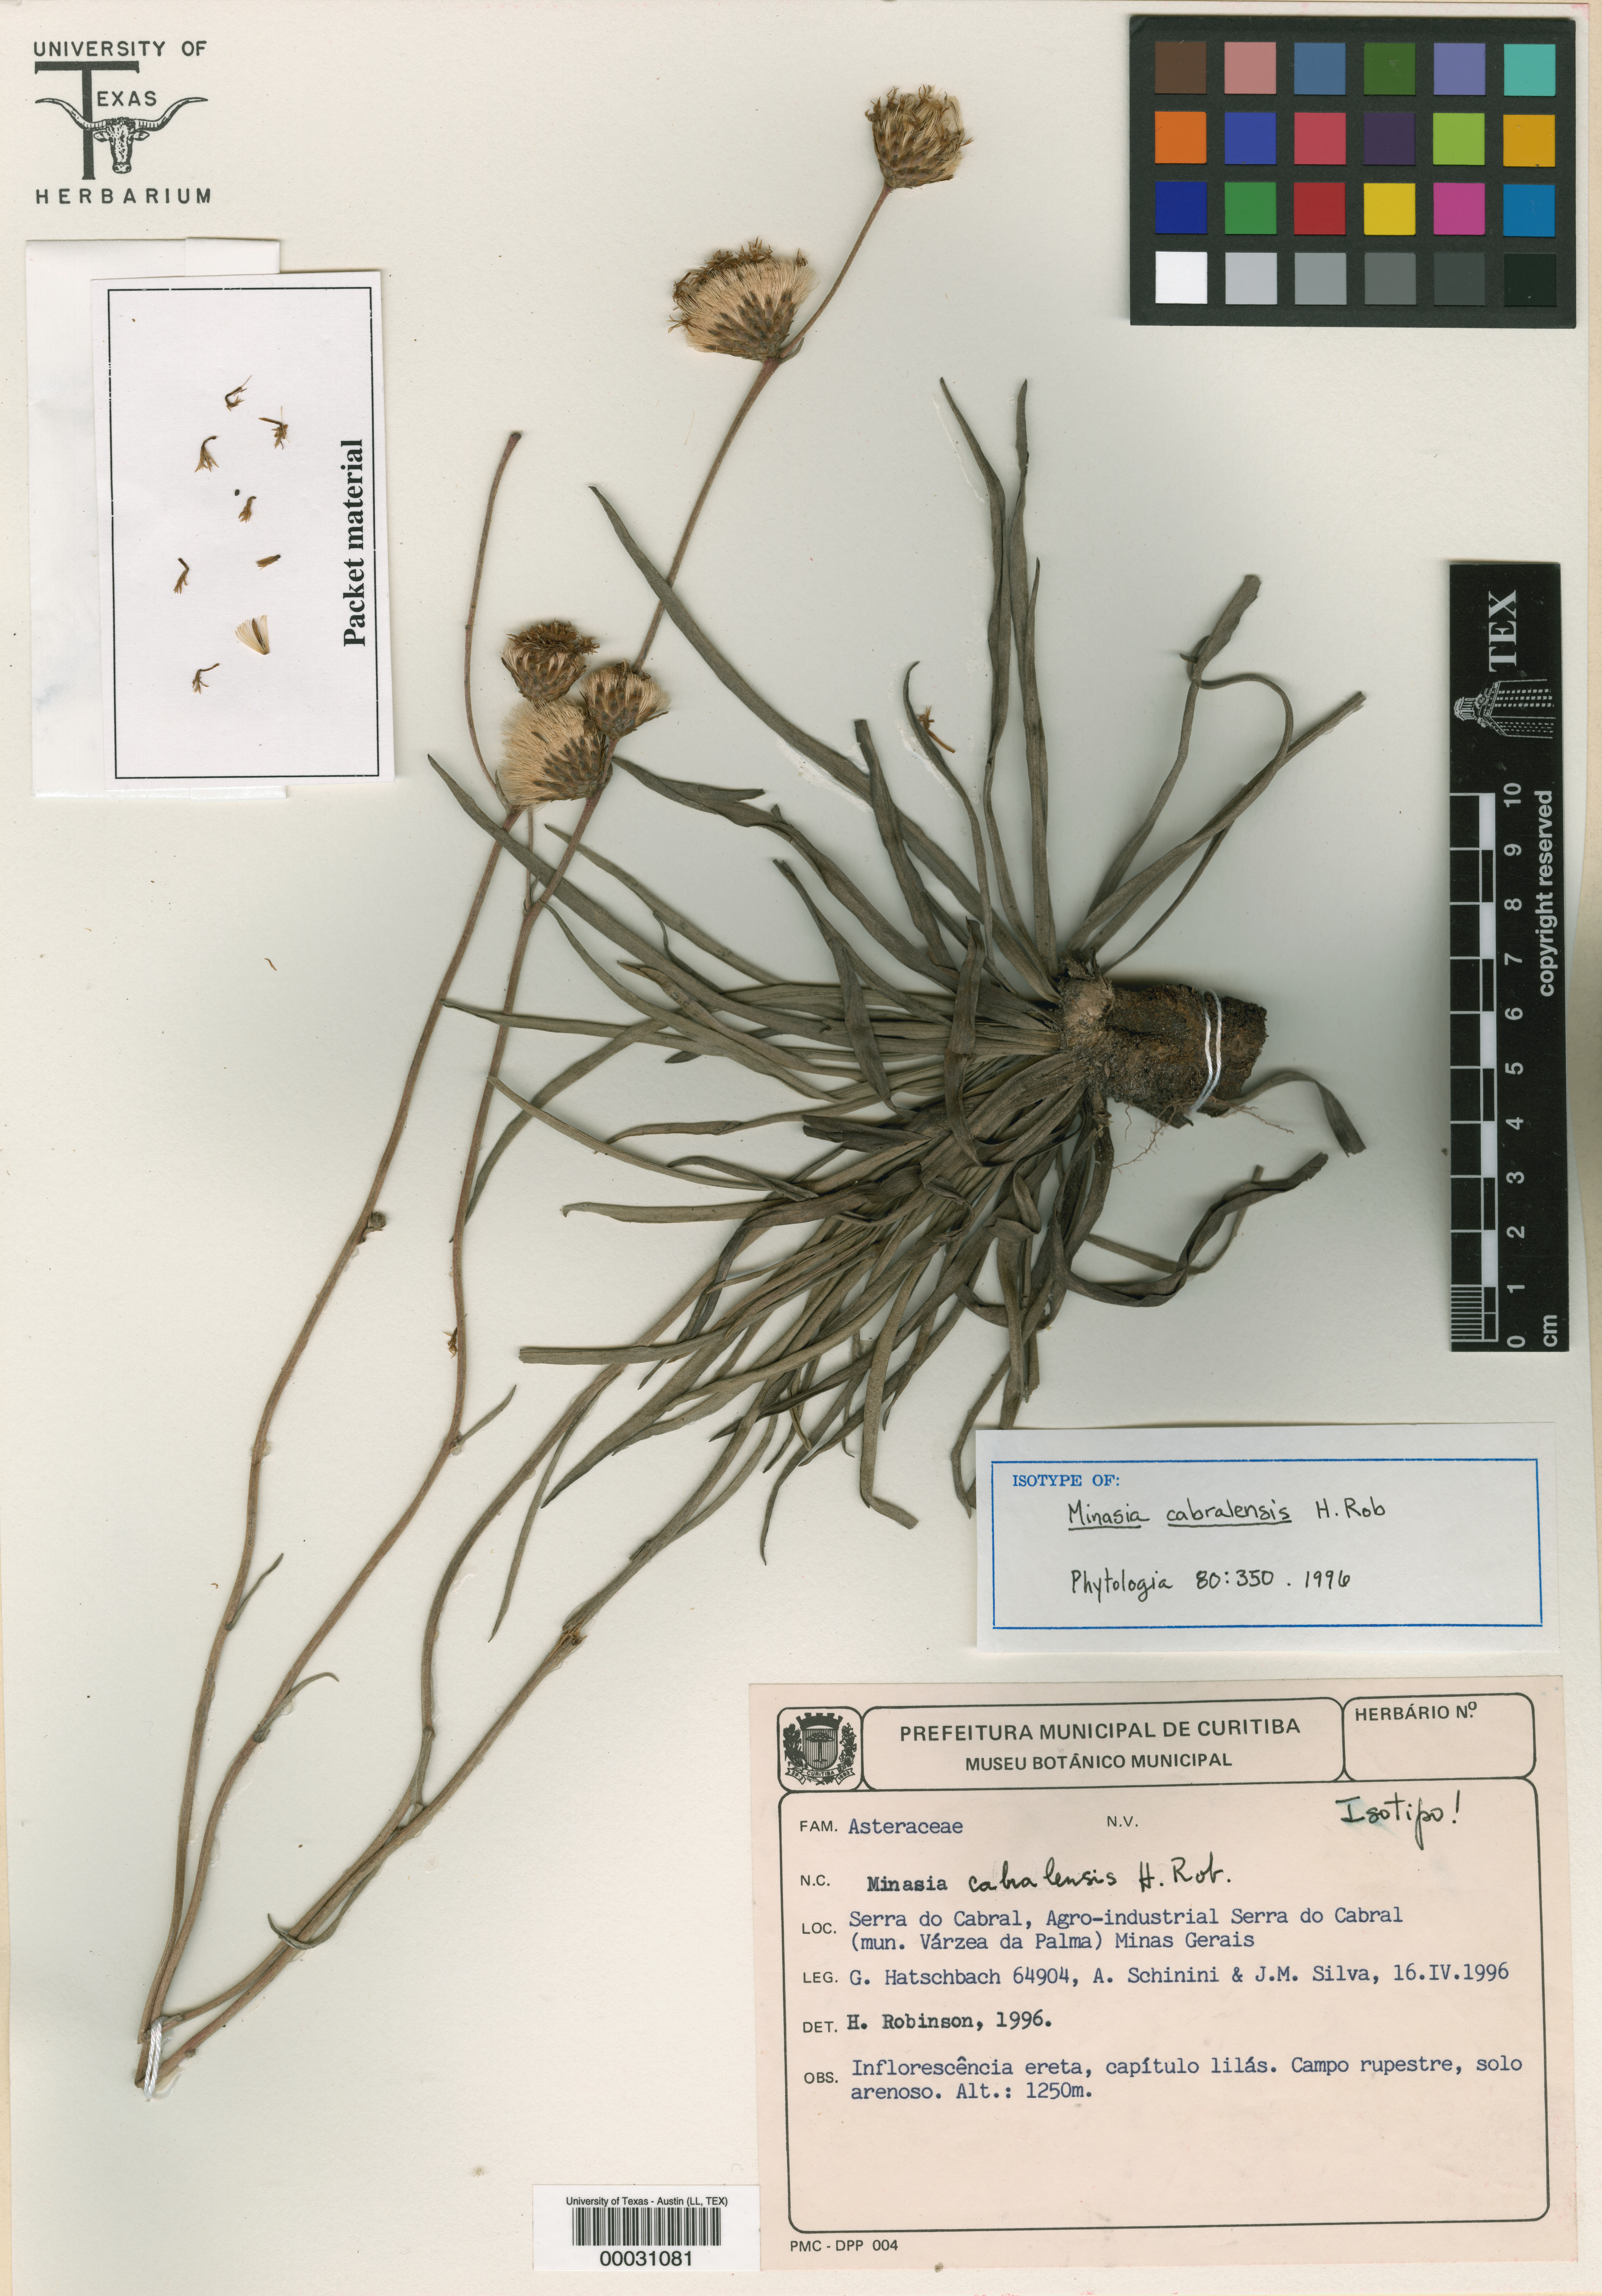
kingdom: Plantae
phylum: Tracheophyta
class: Magnoliopsida
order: Malpighiales
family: Hypericaceae
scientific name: Hypericaceae
